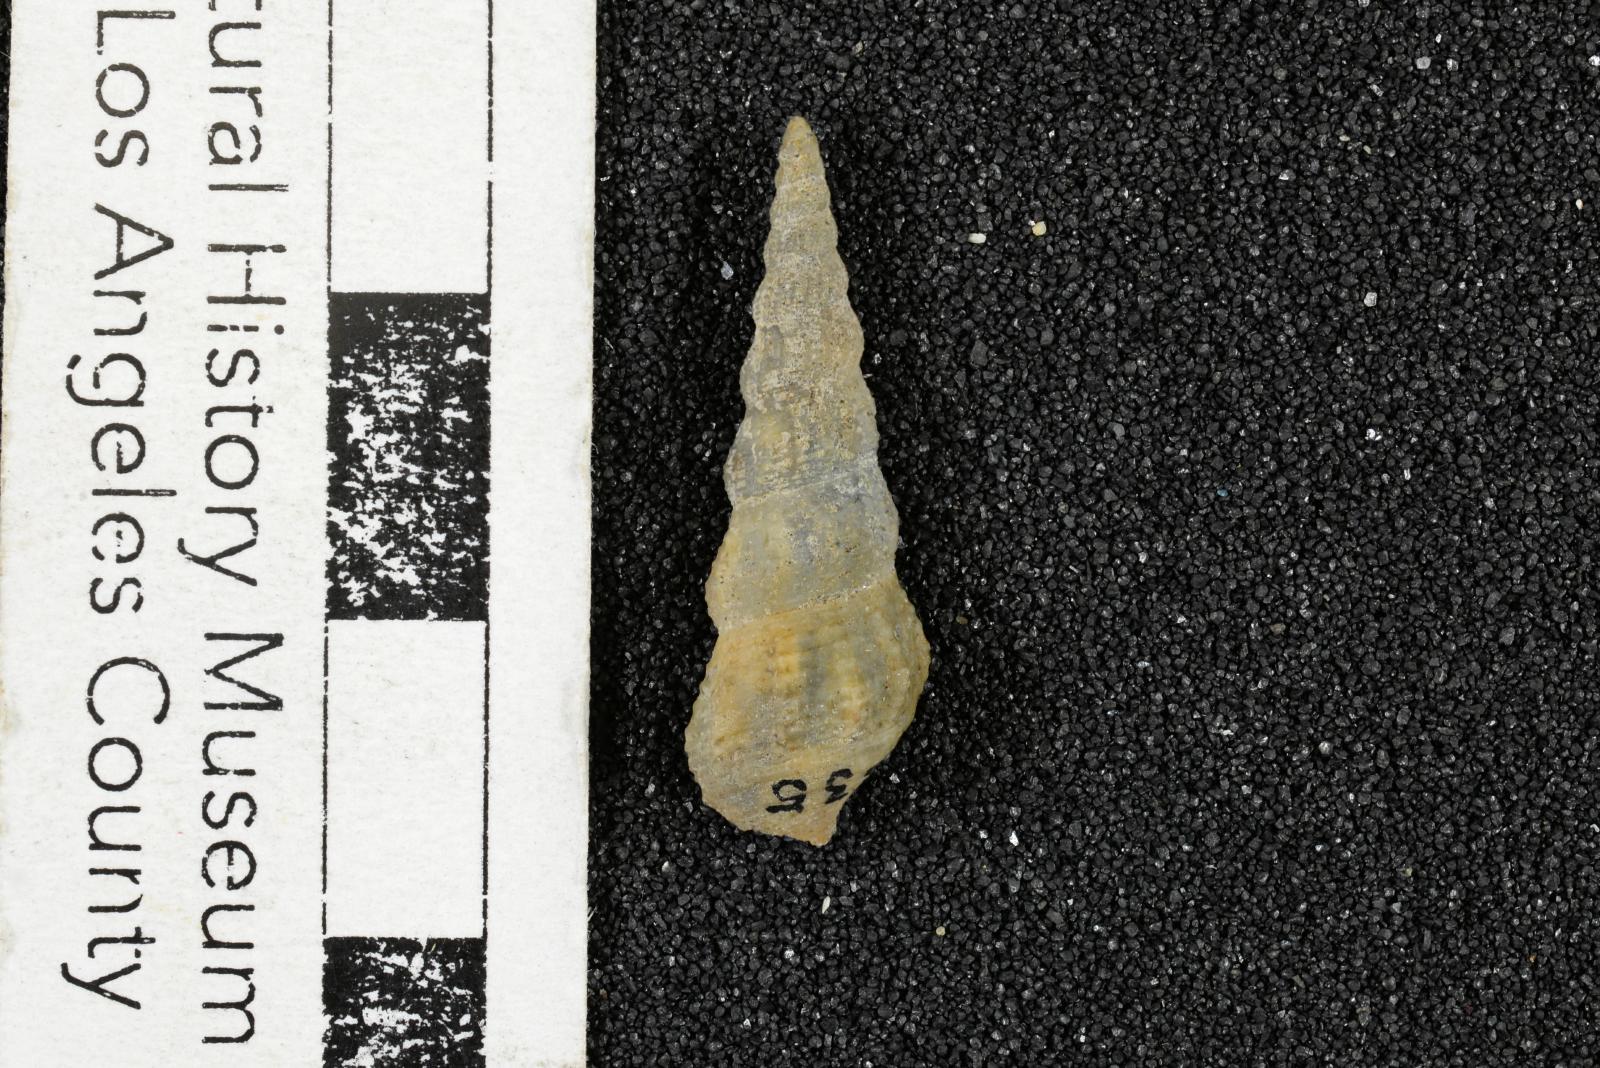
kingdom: Animalia
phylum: Mollusca
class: Gastropoda
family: Metacerithiidae
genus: Cimolithium
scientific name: Cimolithium eleanorae
